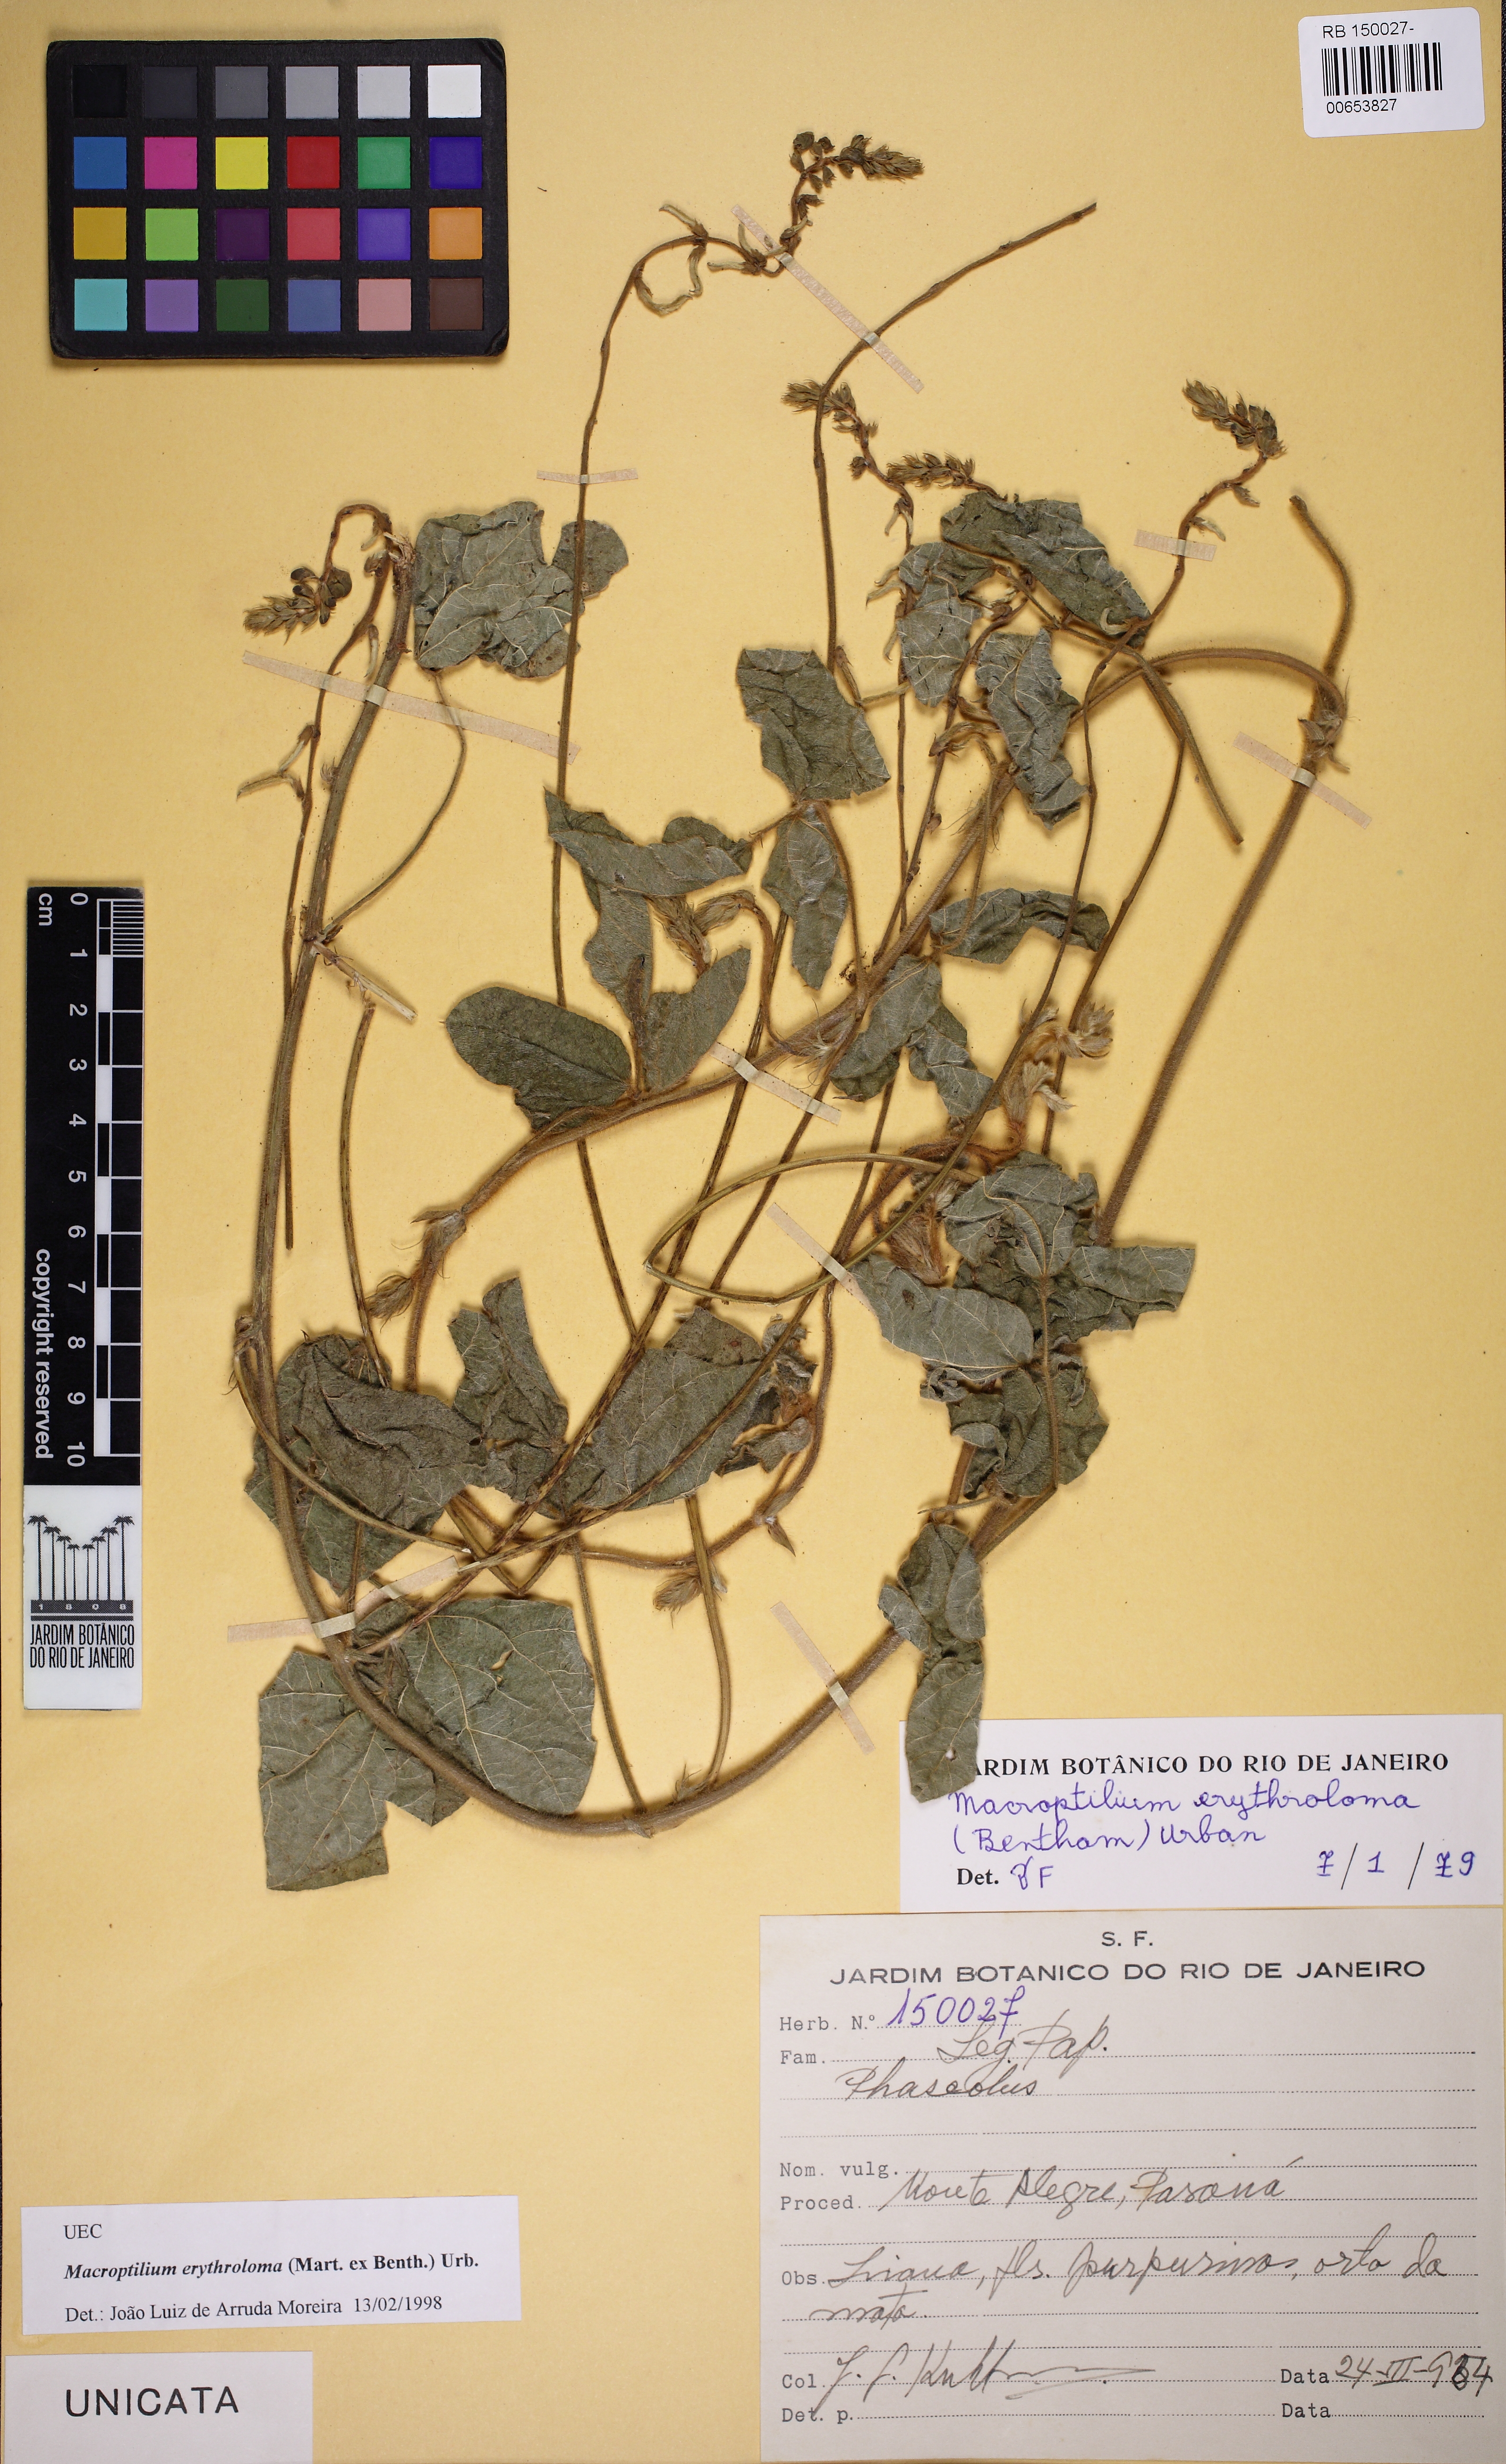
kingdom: Plantae
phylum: Tracheophyta
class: Magnoliopsida
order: Fabales
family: Fabaceae
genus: Macroptilium
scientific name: Macroptilium erythroloma
